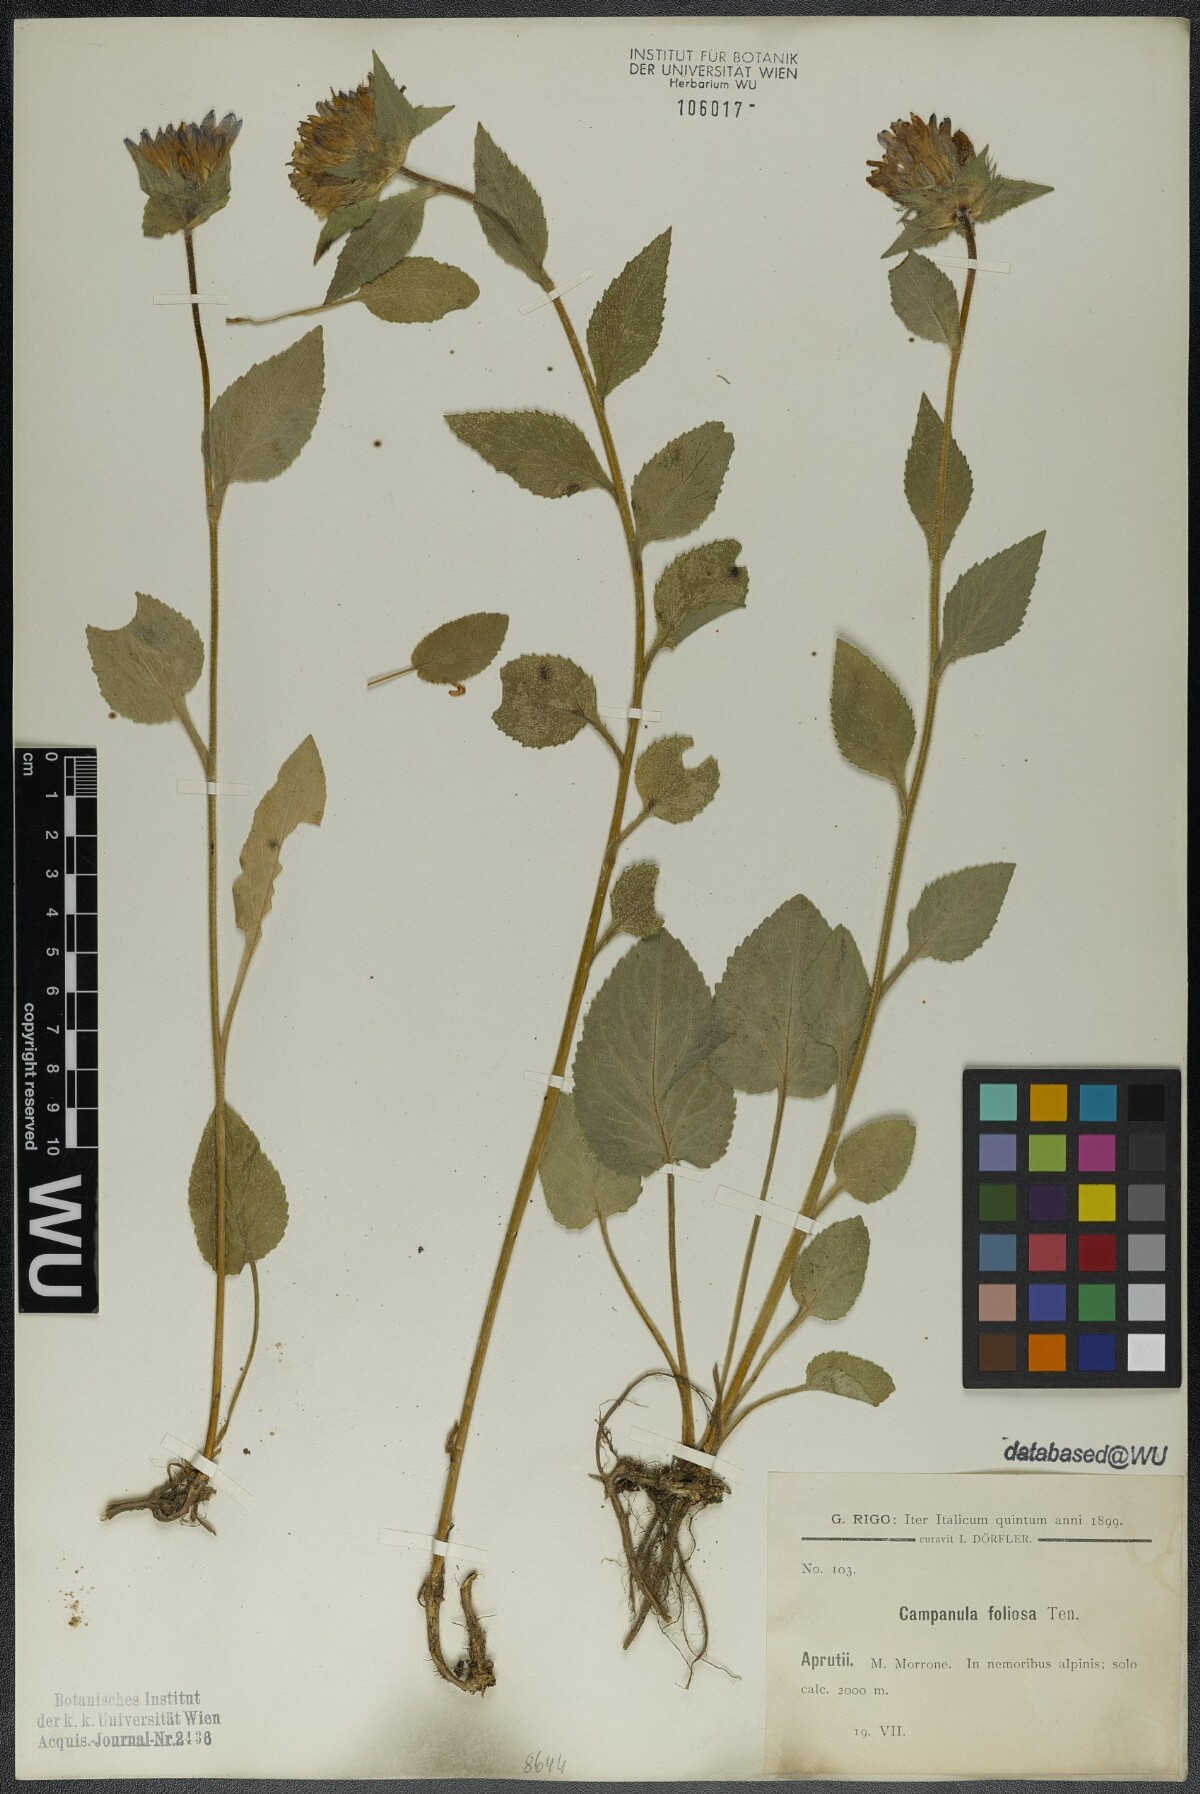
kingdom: Plantae
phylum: Tracheophyta
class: Magnoliopsida
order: Asterales
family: Campanulaceae
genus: Campanula
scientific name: Campanula foliosa
